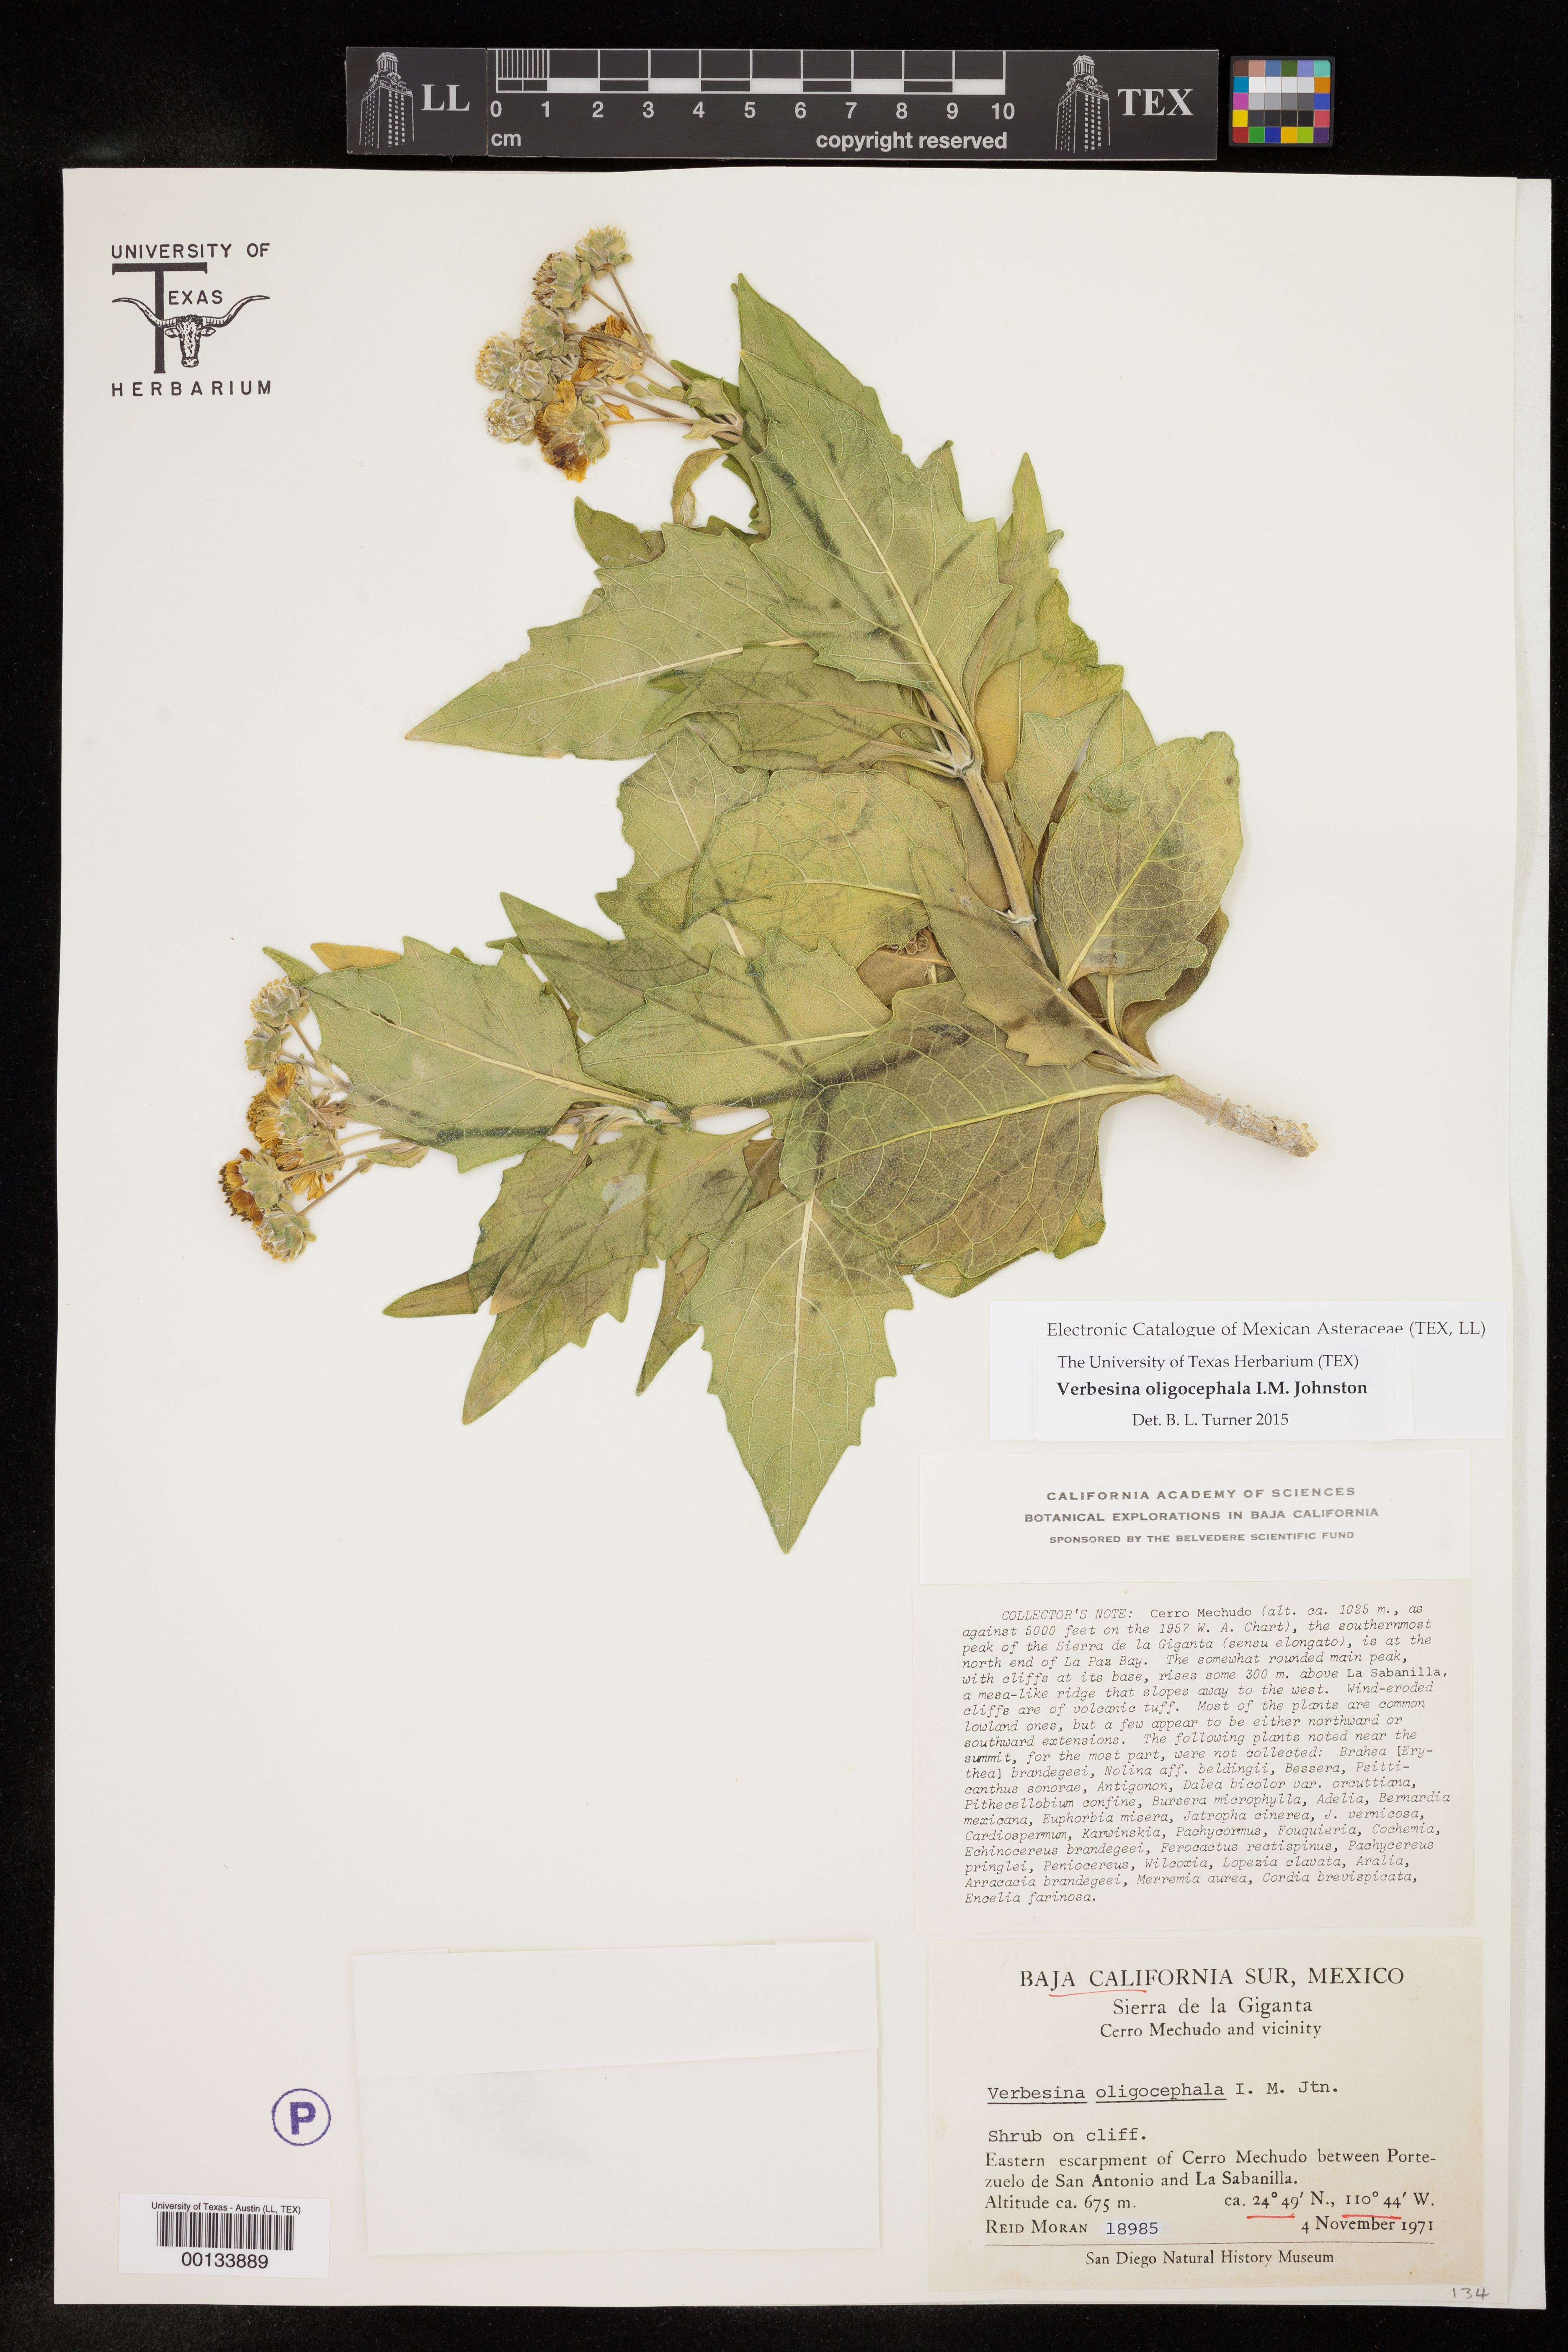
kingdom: Plantae
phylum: Tracheophyta
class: Magnoliopsida
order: Asterales
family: Asteraceae
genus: Verbesina
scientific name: Verbesina oligocephala
